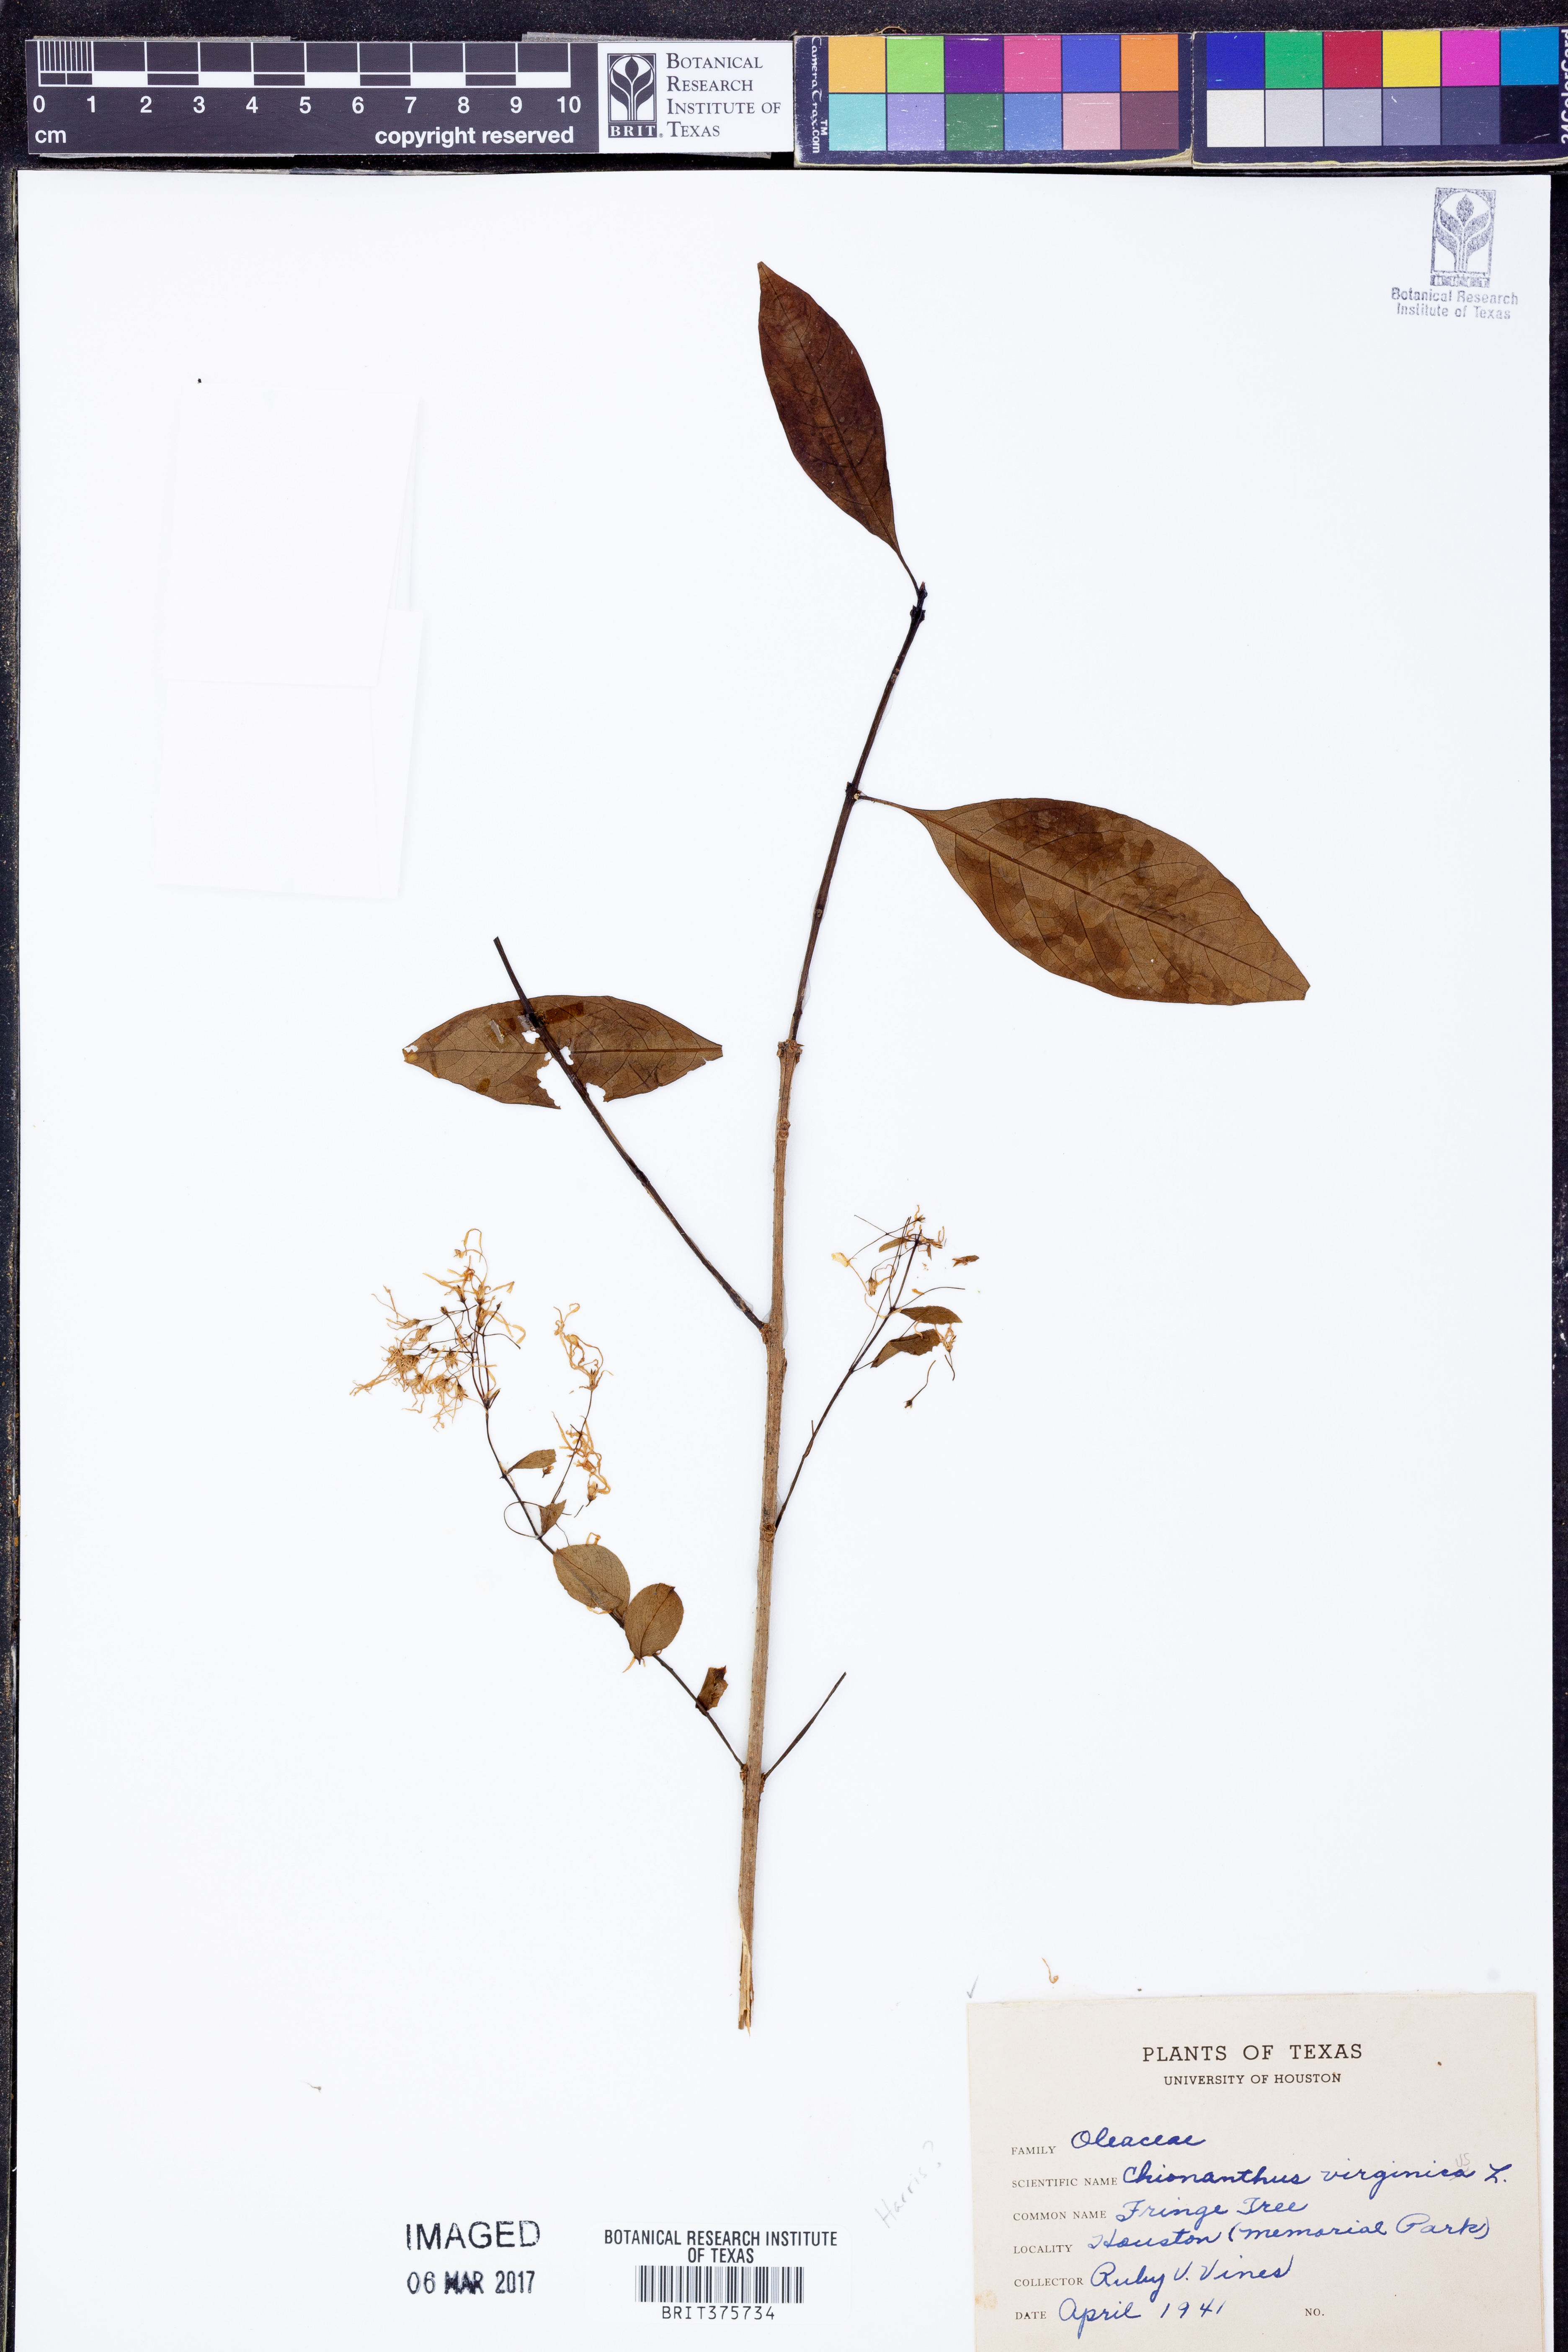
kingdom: Plantae
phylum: Tracheophyta
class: Magnoliopsida
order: Lamiales
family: Oleaceae
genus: Chionanthus
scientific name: Chionanthus virginicus
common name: American fringetree
